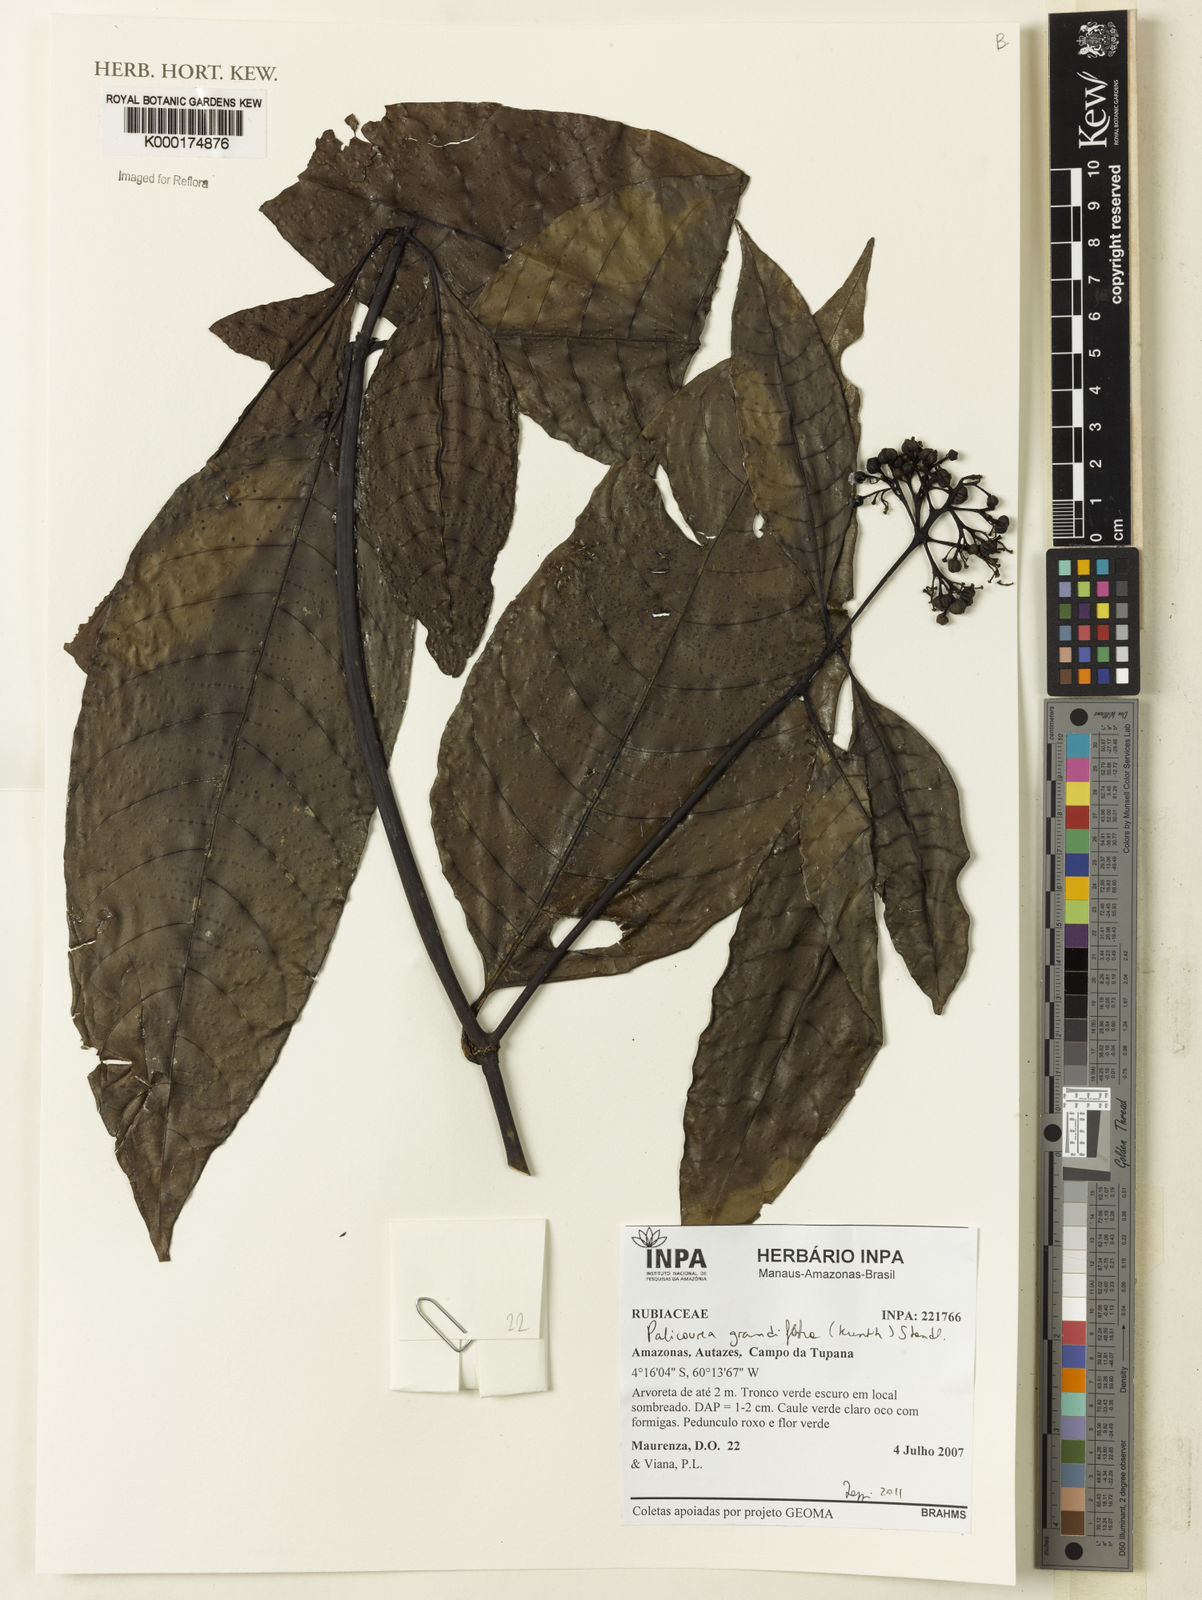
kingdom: Plantae
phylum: Tracheophyta
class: Magnoliopsida
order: Gentianales
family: Rubiaceae
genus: Palicourea
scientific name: Palicourea grandiflora
